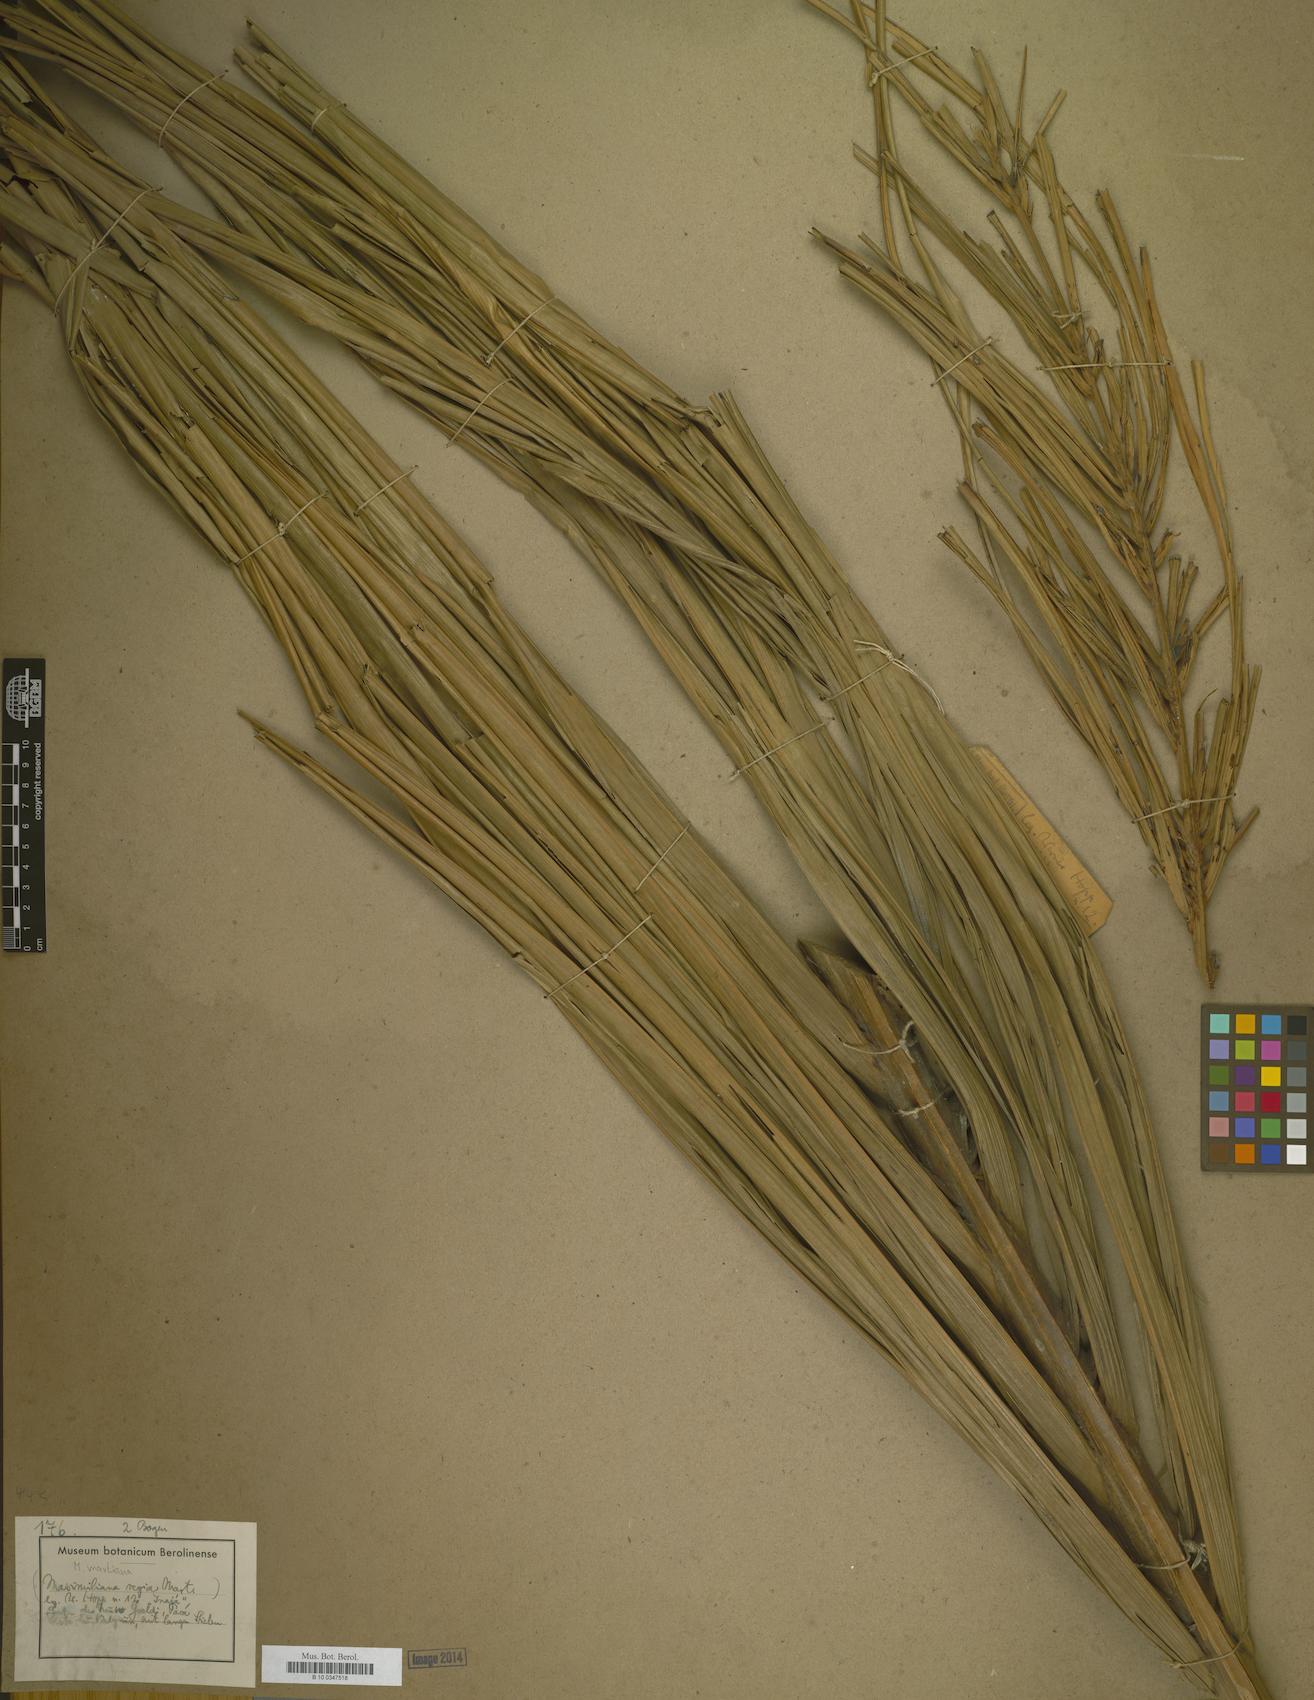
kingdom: Plantae
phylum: Tracheophyta
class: Liliopsida
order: Arecales
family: Arecaceae
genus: Attalea
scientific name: Attalea maripa
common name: Maripa palm
